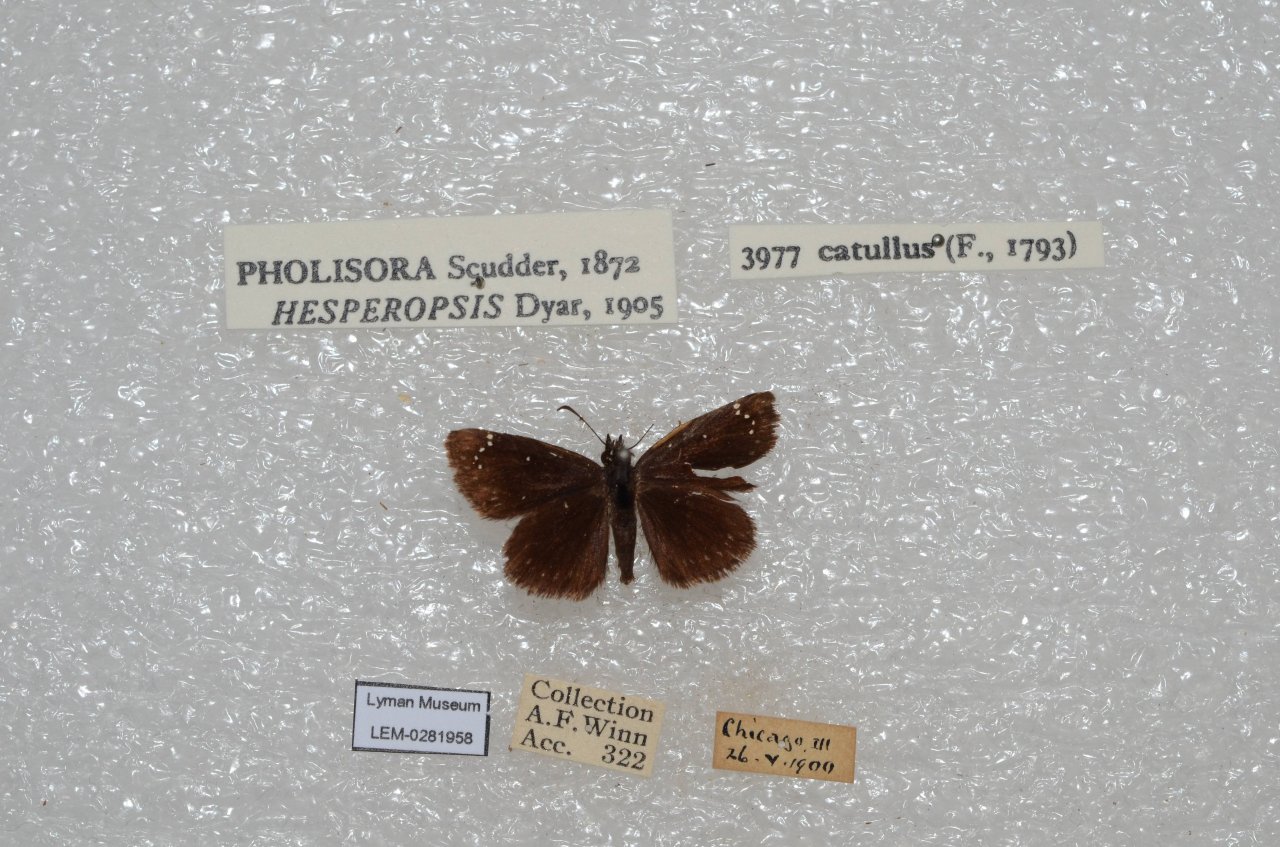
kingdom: Animalia
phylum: Arthropoda
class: Insecta
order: Lepidoptera
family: Hesperiidae
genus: Pholisora
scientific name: Pholisora catullus
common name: Common Sootywing
